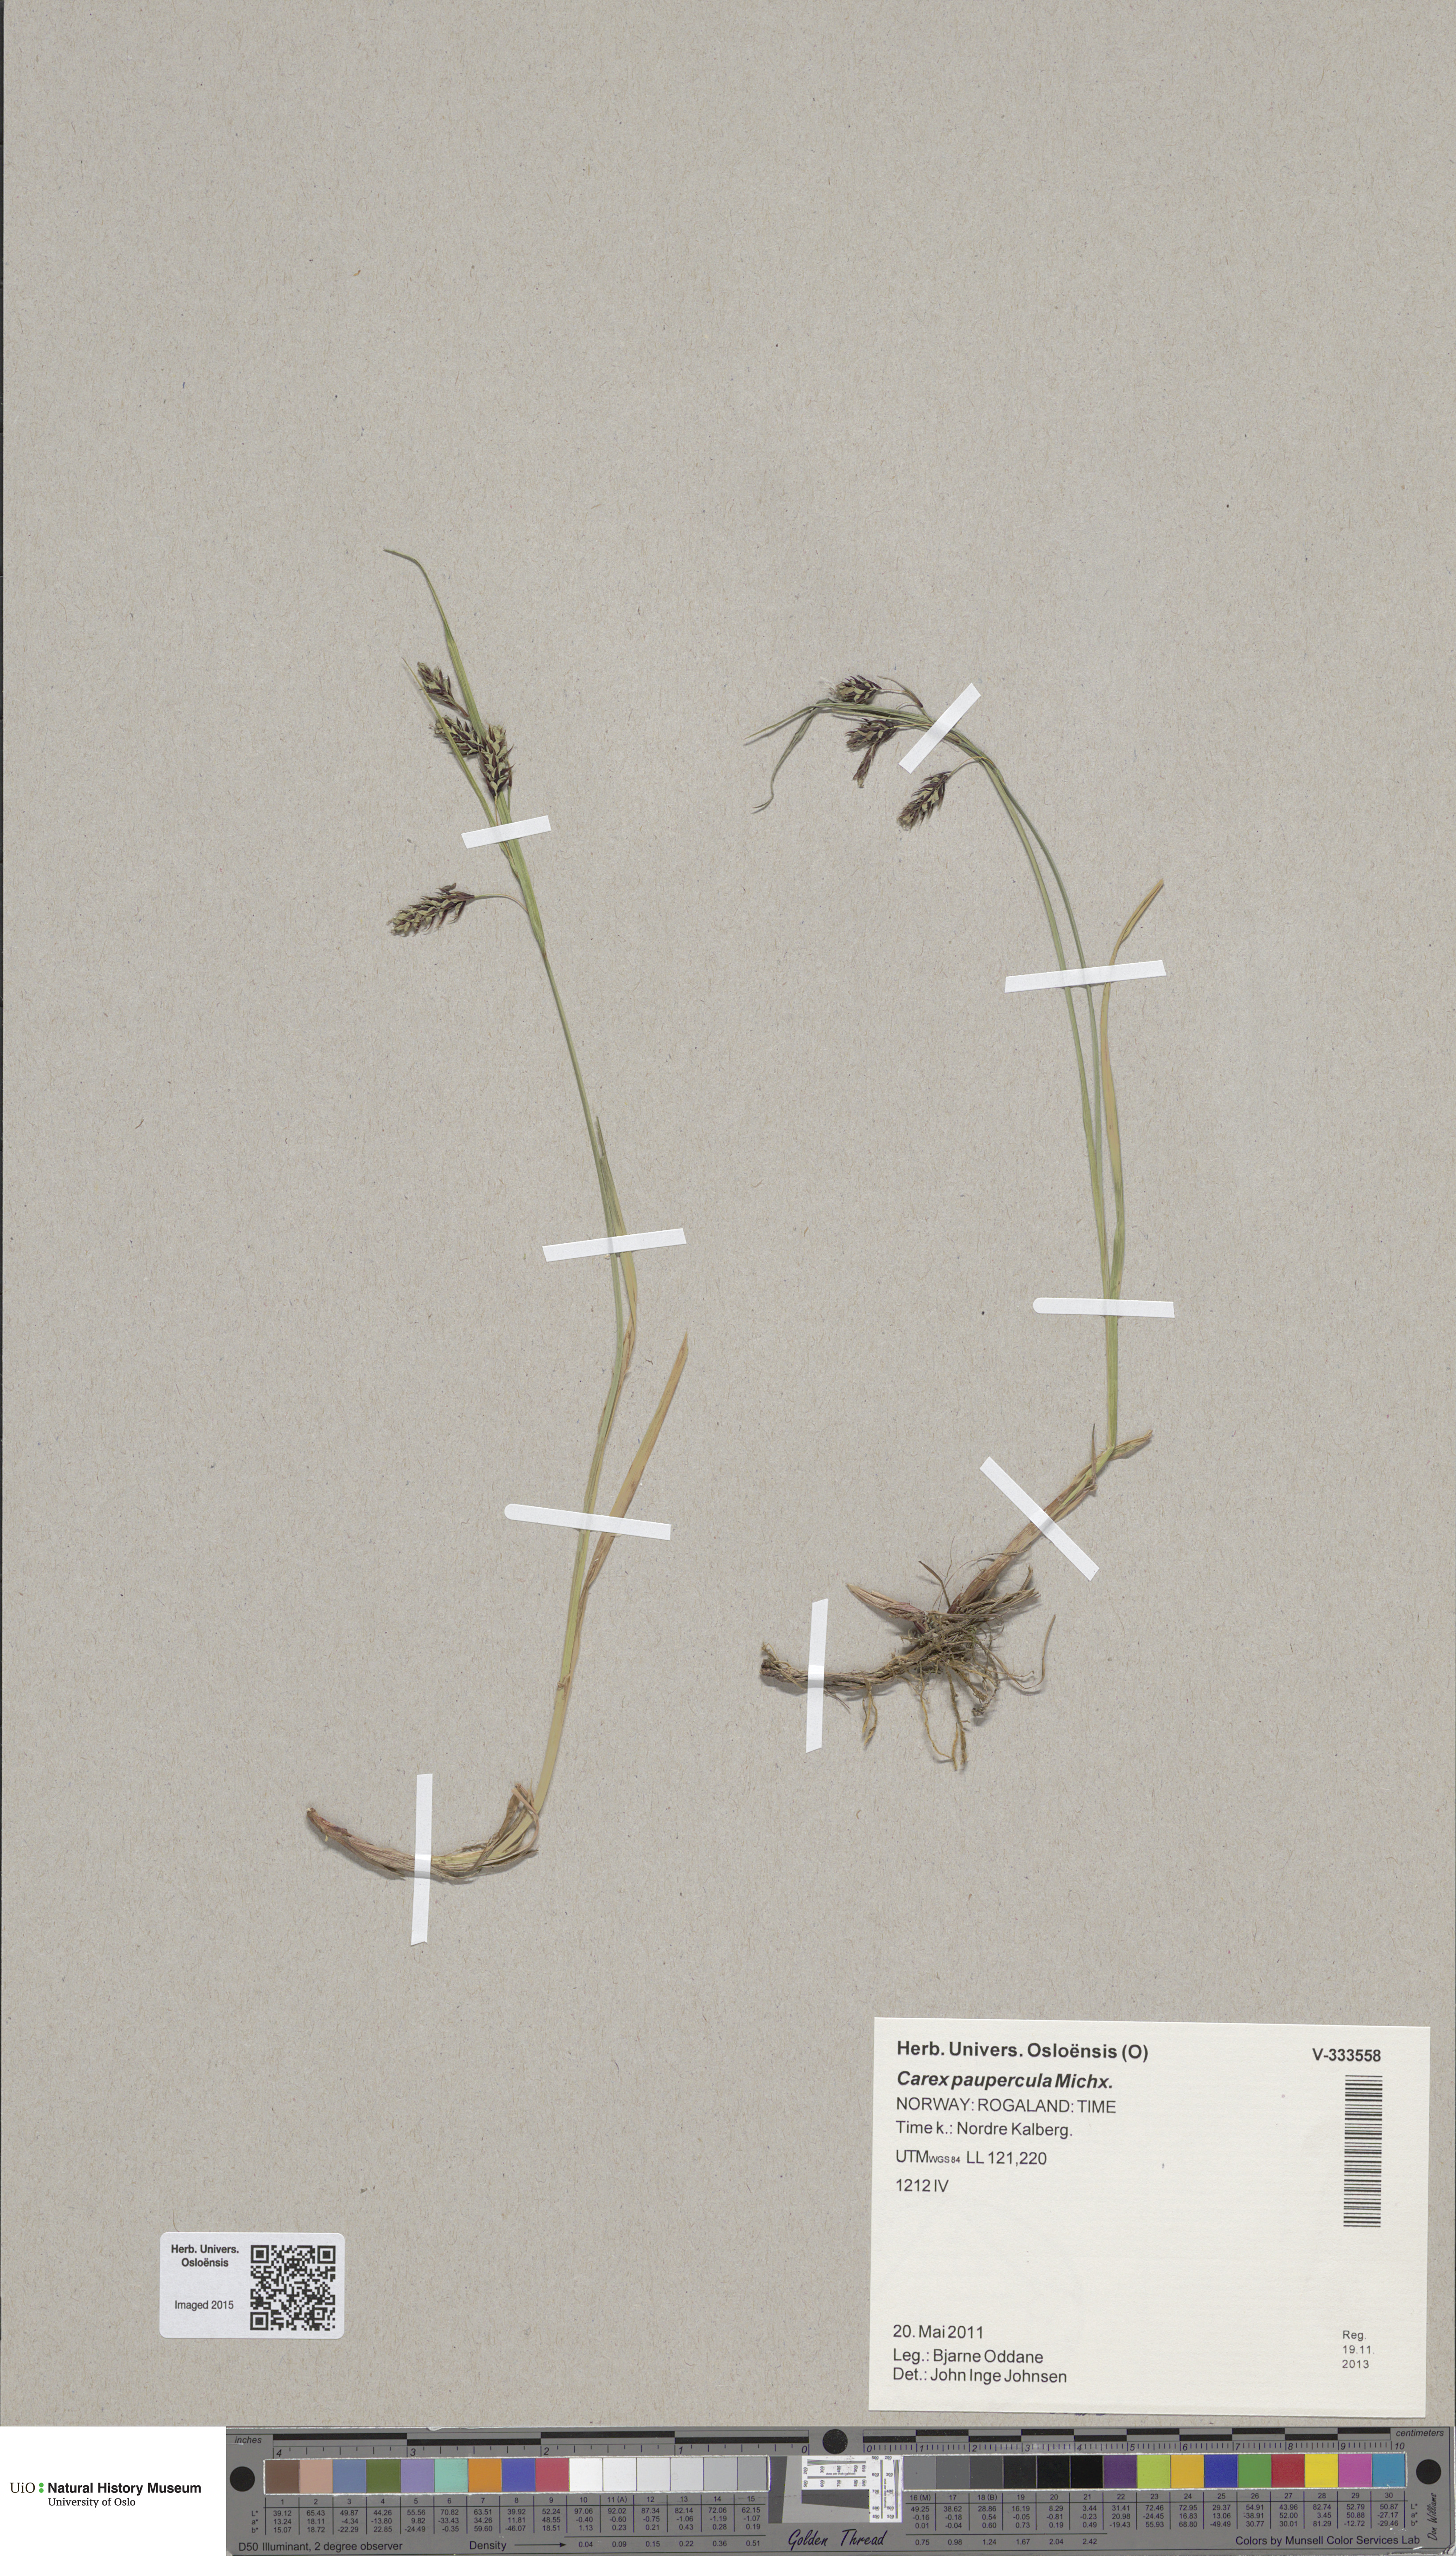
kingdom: Plantae
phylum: Tracheophyta
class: Liliopsida
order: Poales
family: Cyperaceae
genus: Carex
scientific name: Carex magellanica
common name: Bog sedge
